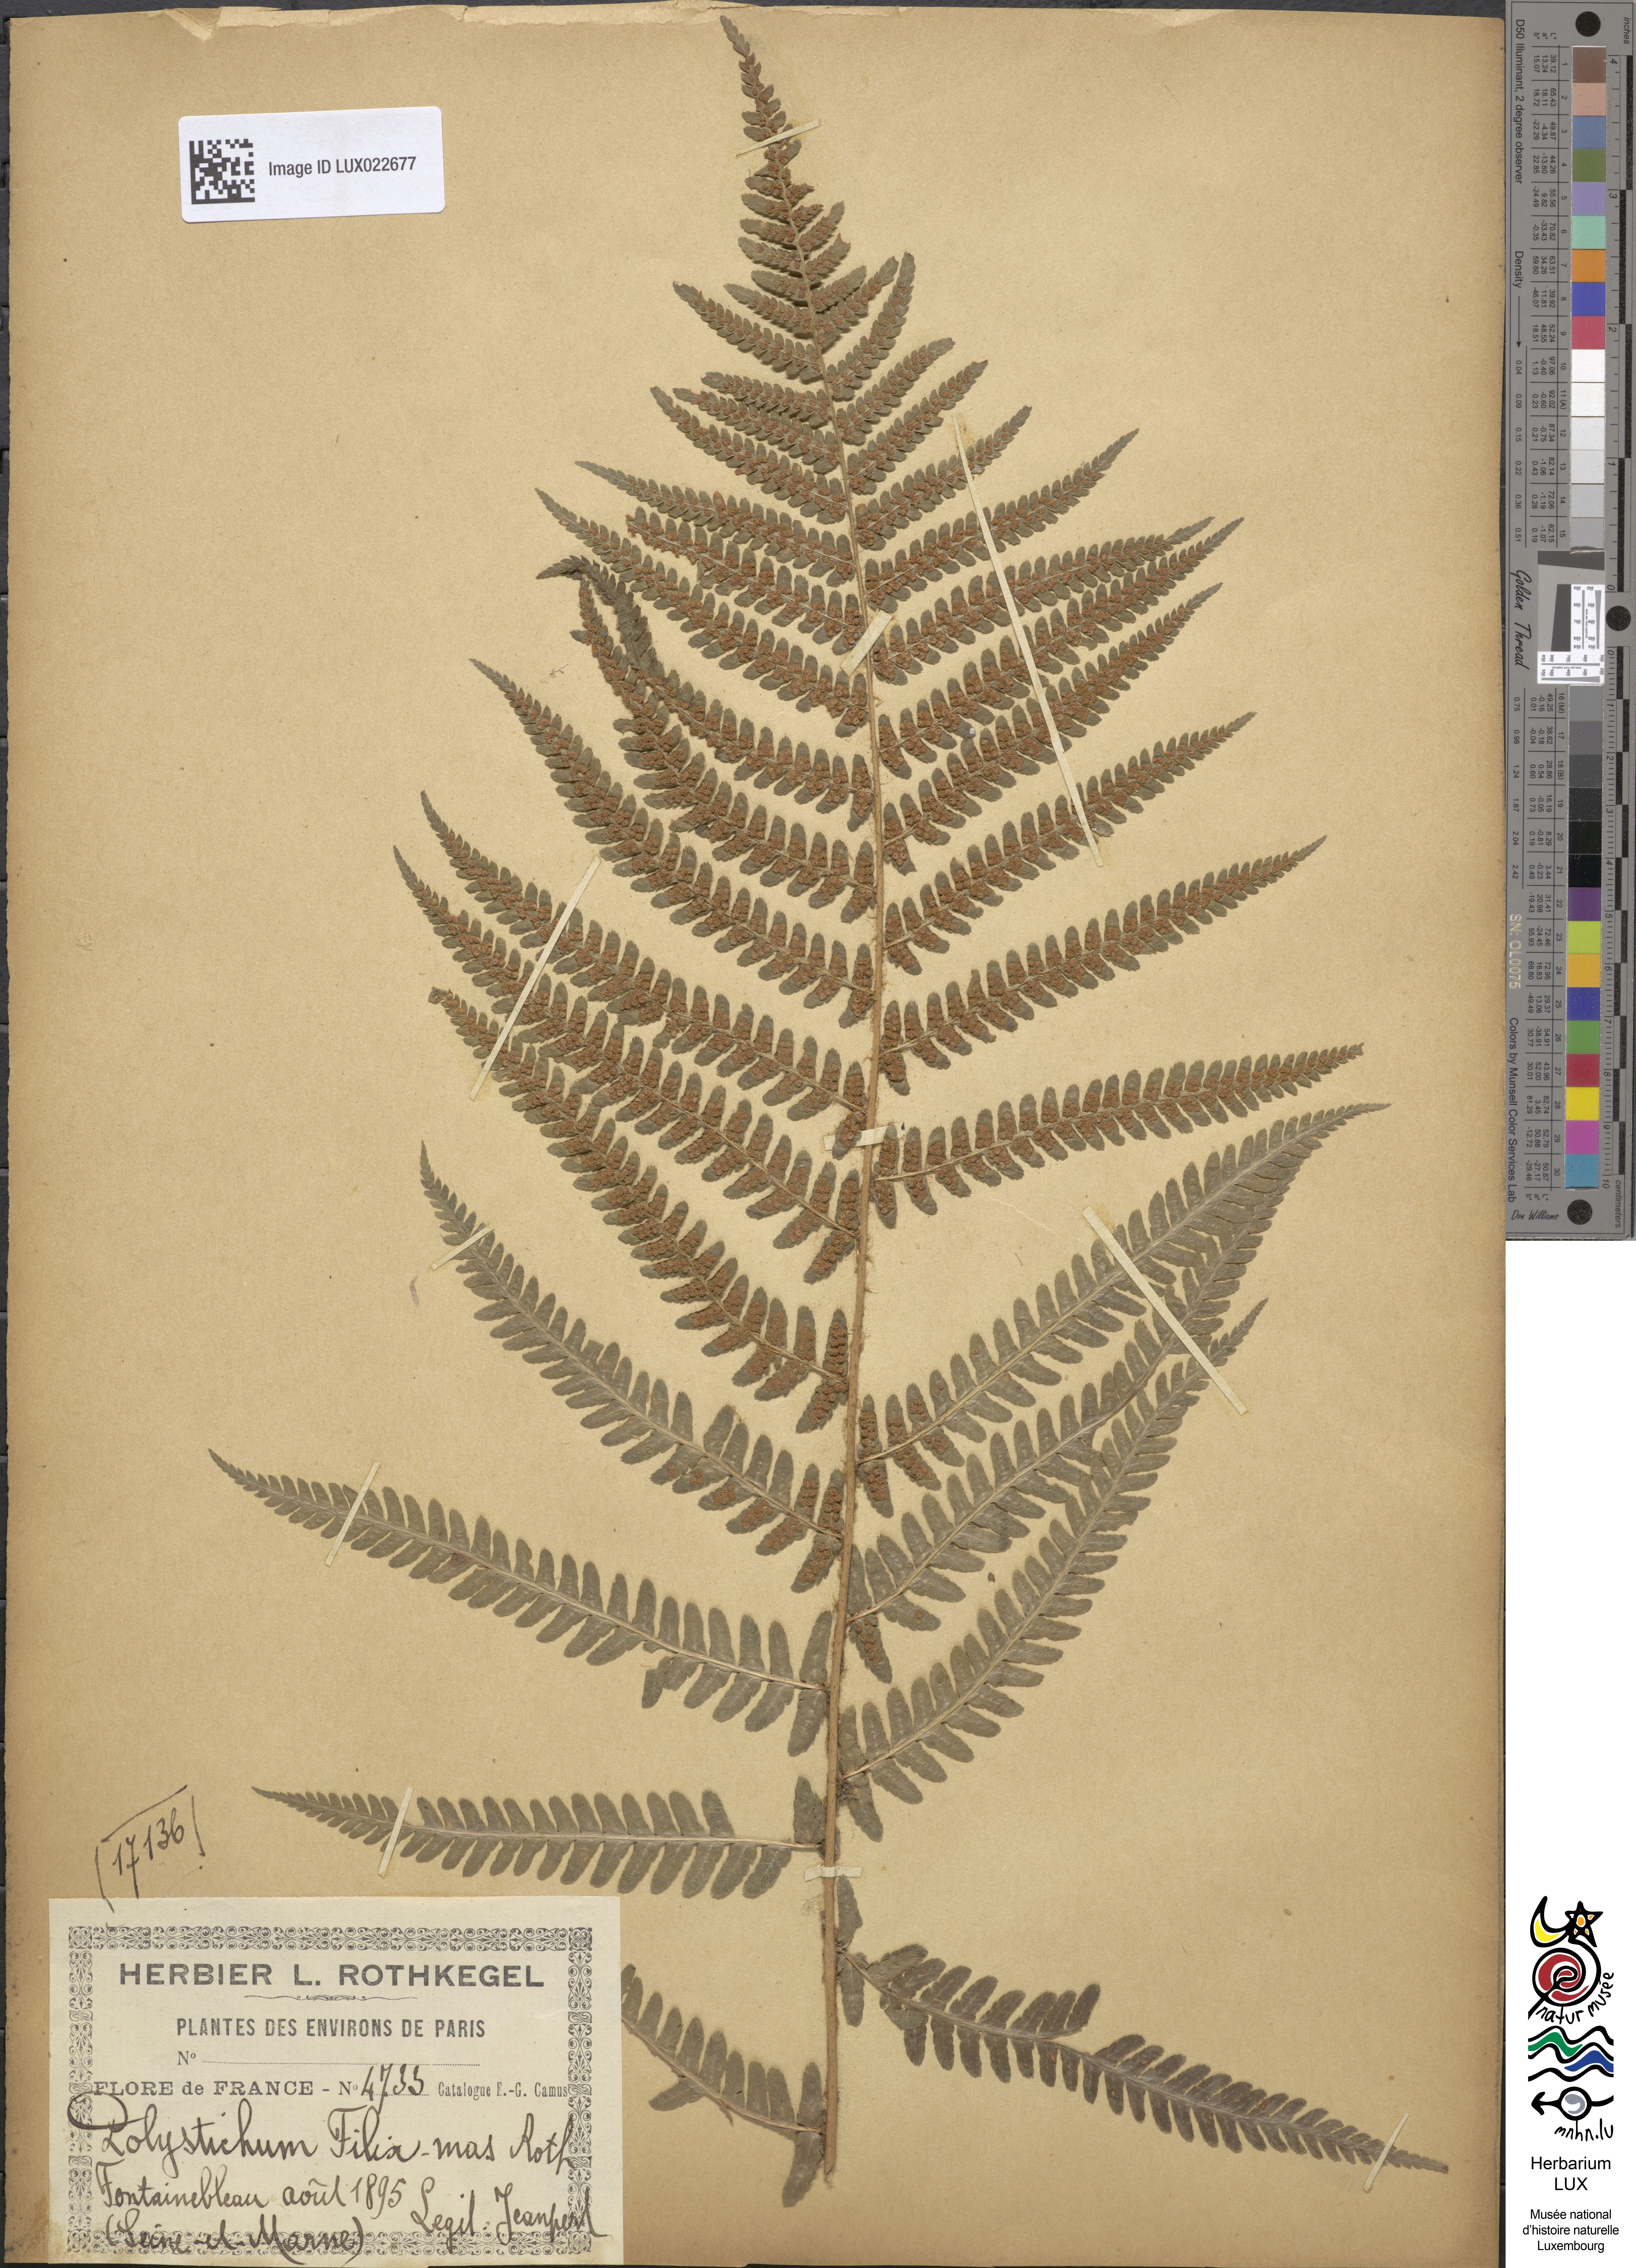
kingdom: Plantae
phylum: Tracheophyta
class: Polypodiopsida
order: Polypodiales
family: Dryopteridaceae
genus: Dryopteris
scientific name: Dryopteris filix-mas
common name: Male fern
